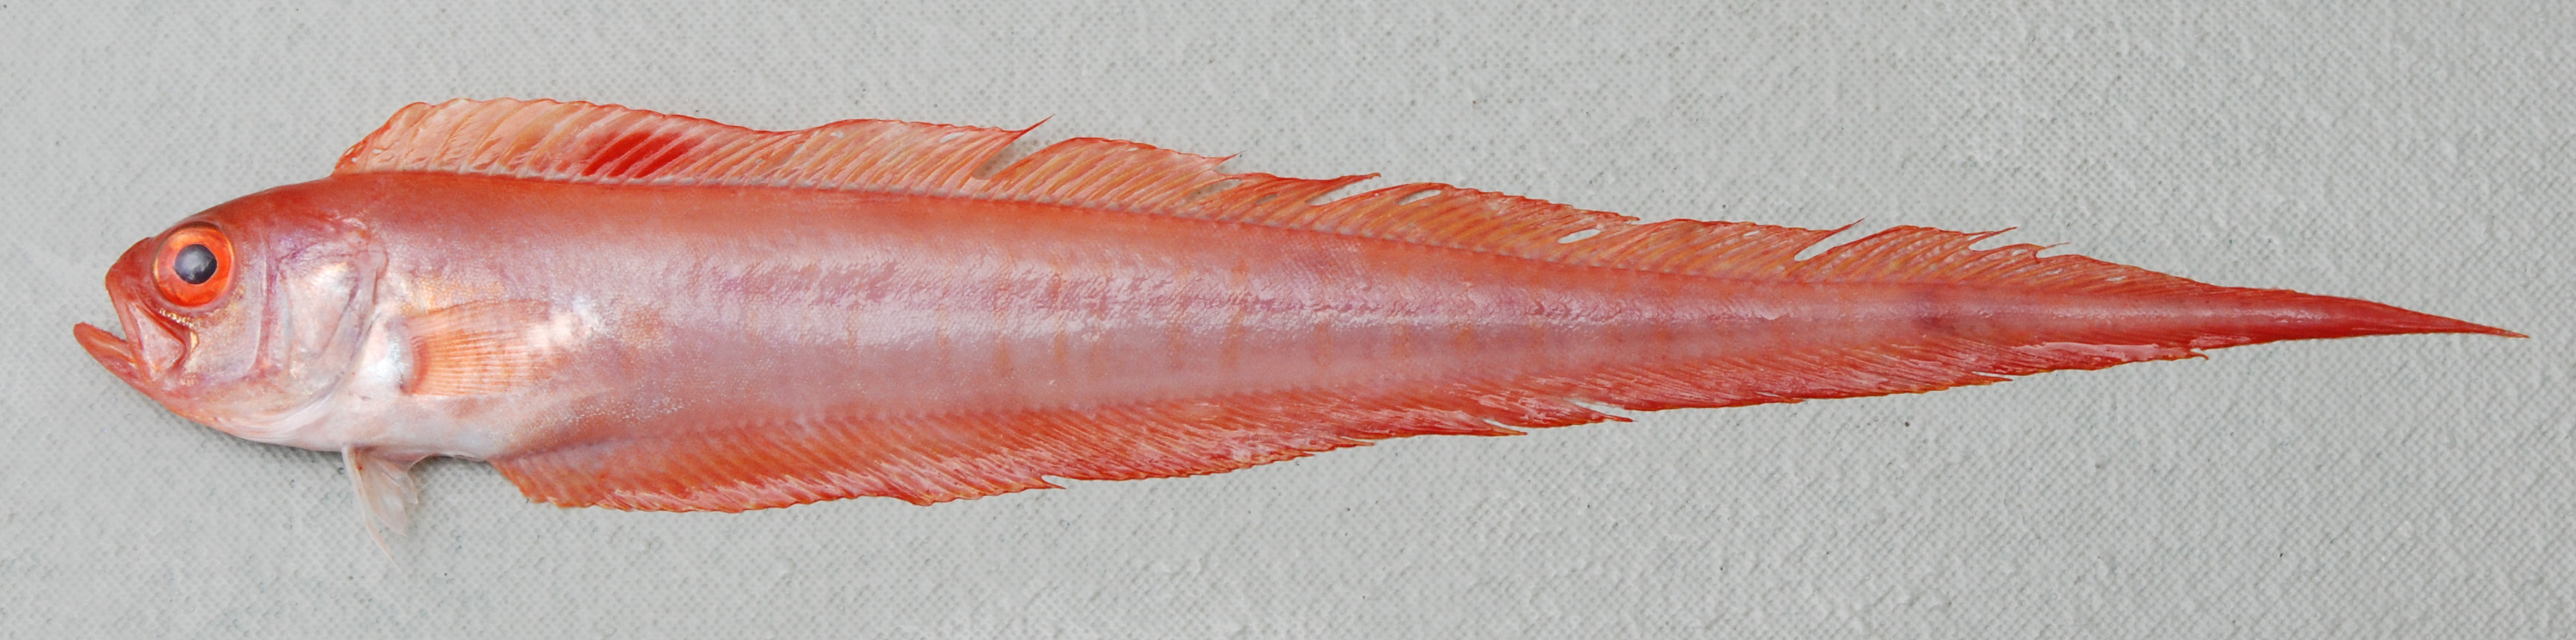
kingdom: Animalia
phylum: Chordata
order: Perciformes
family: Cepolidae
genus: Acanthocepola
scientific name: Acanthocepola indica
